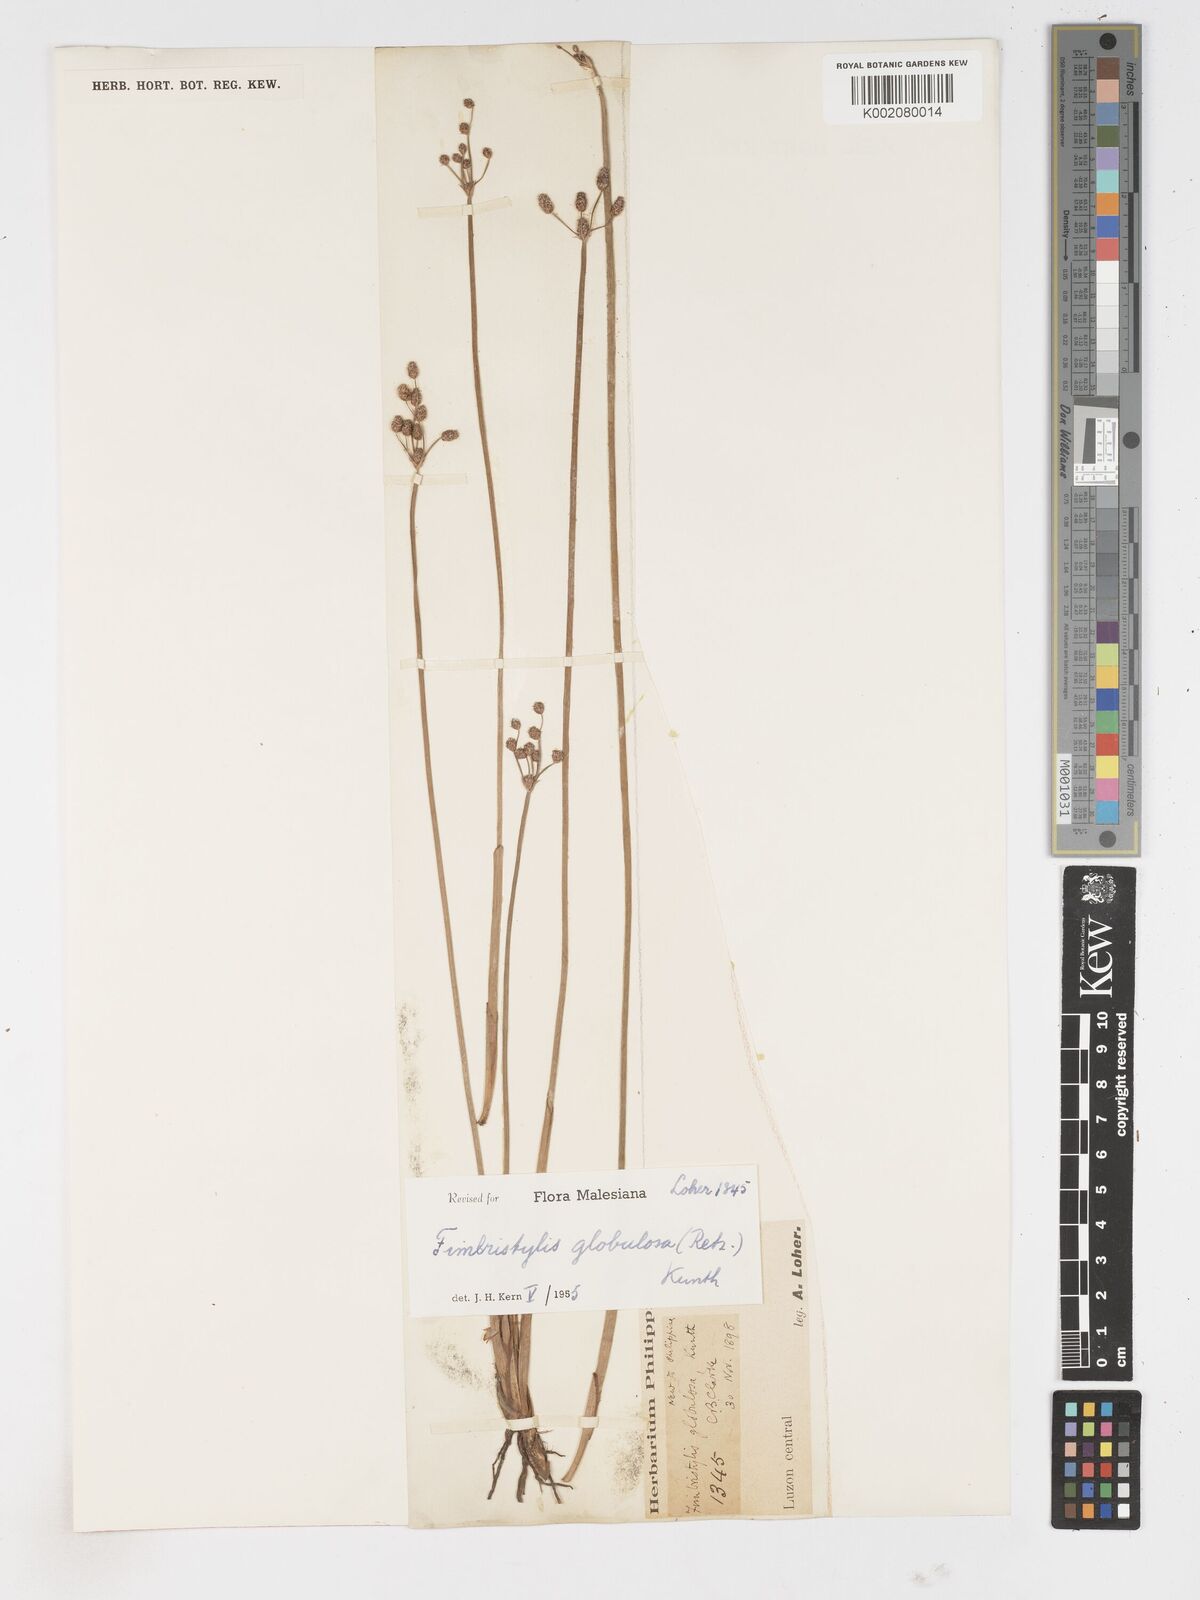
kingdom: Plantae
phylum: Tracheophyta
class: Liliopsida
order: Poales
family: Cyperaceae
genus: Fimbristylis
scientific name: Fimbristylis umbellaris
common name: Globular fimbristylis
